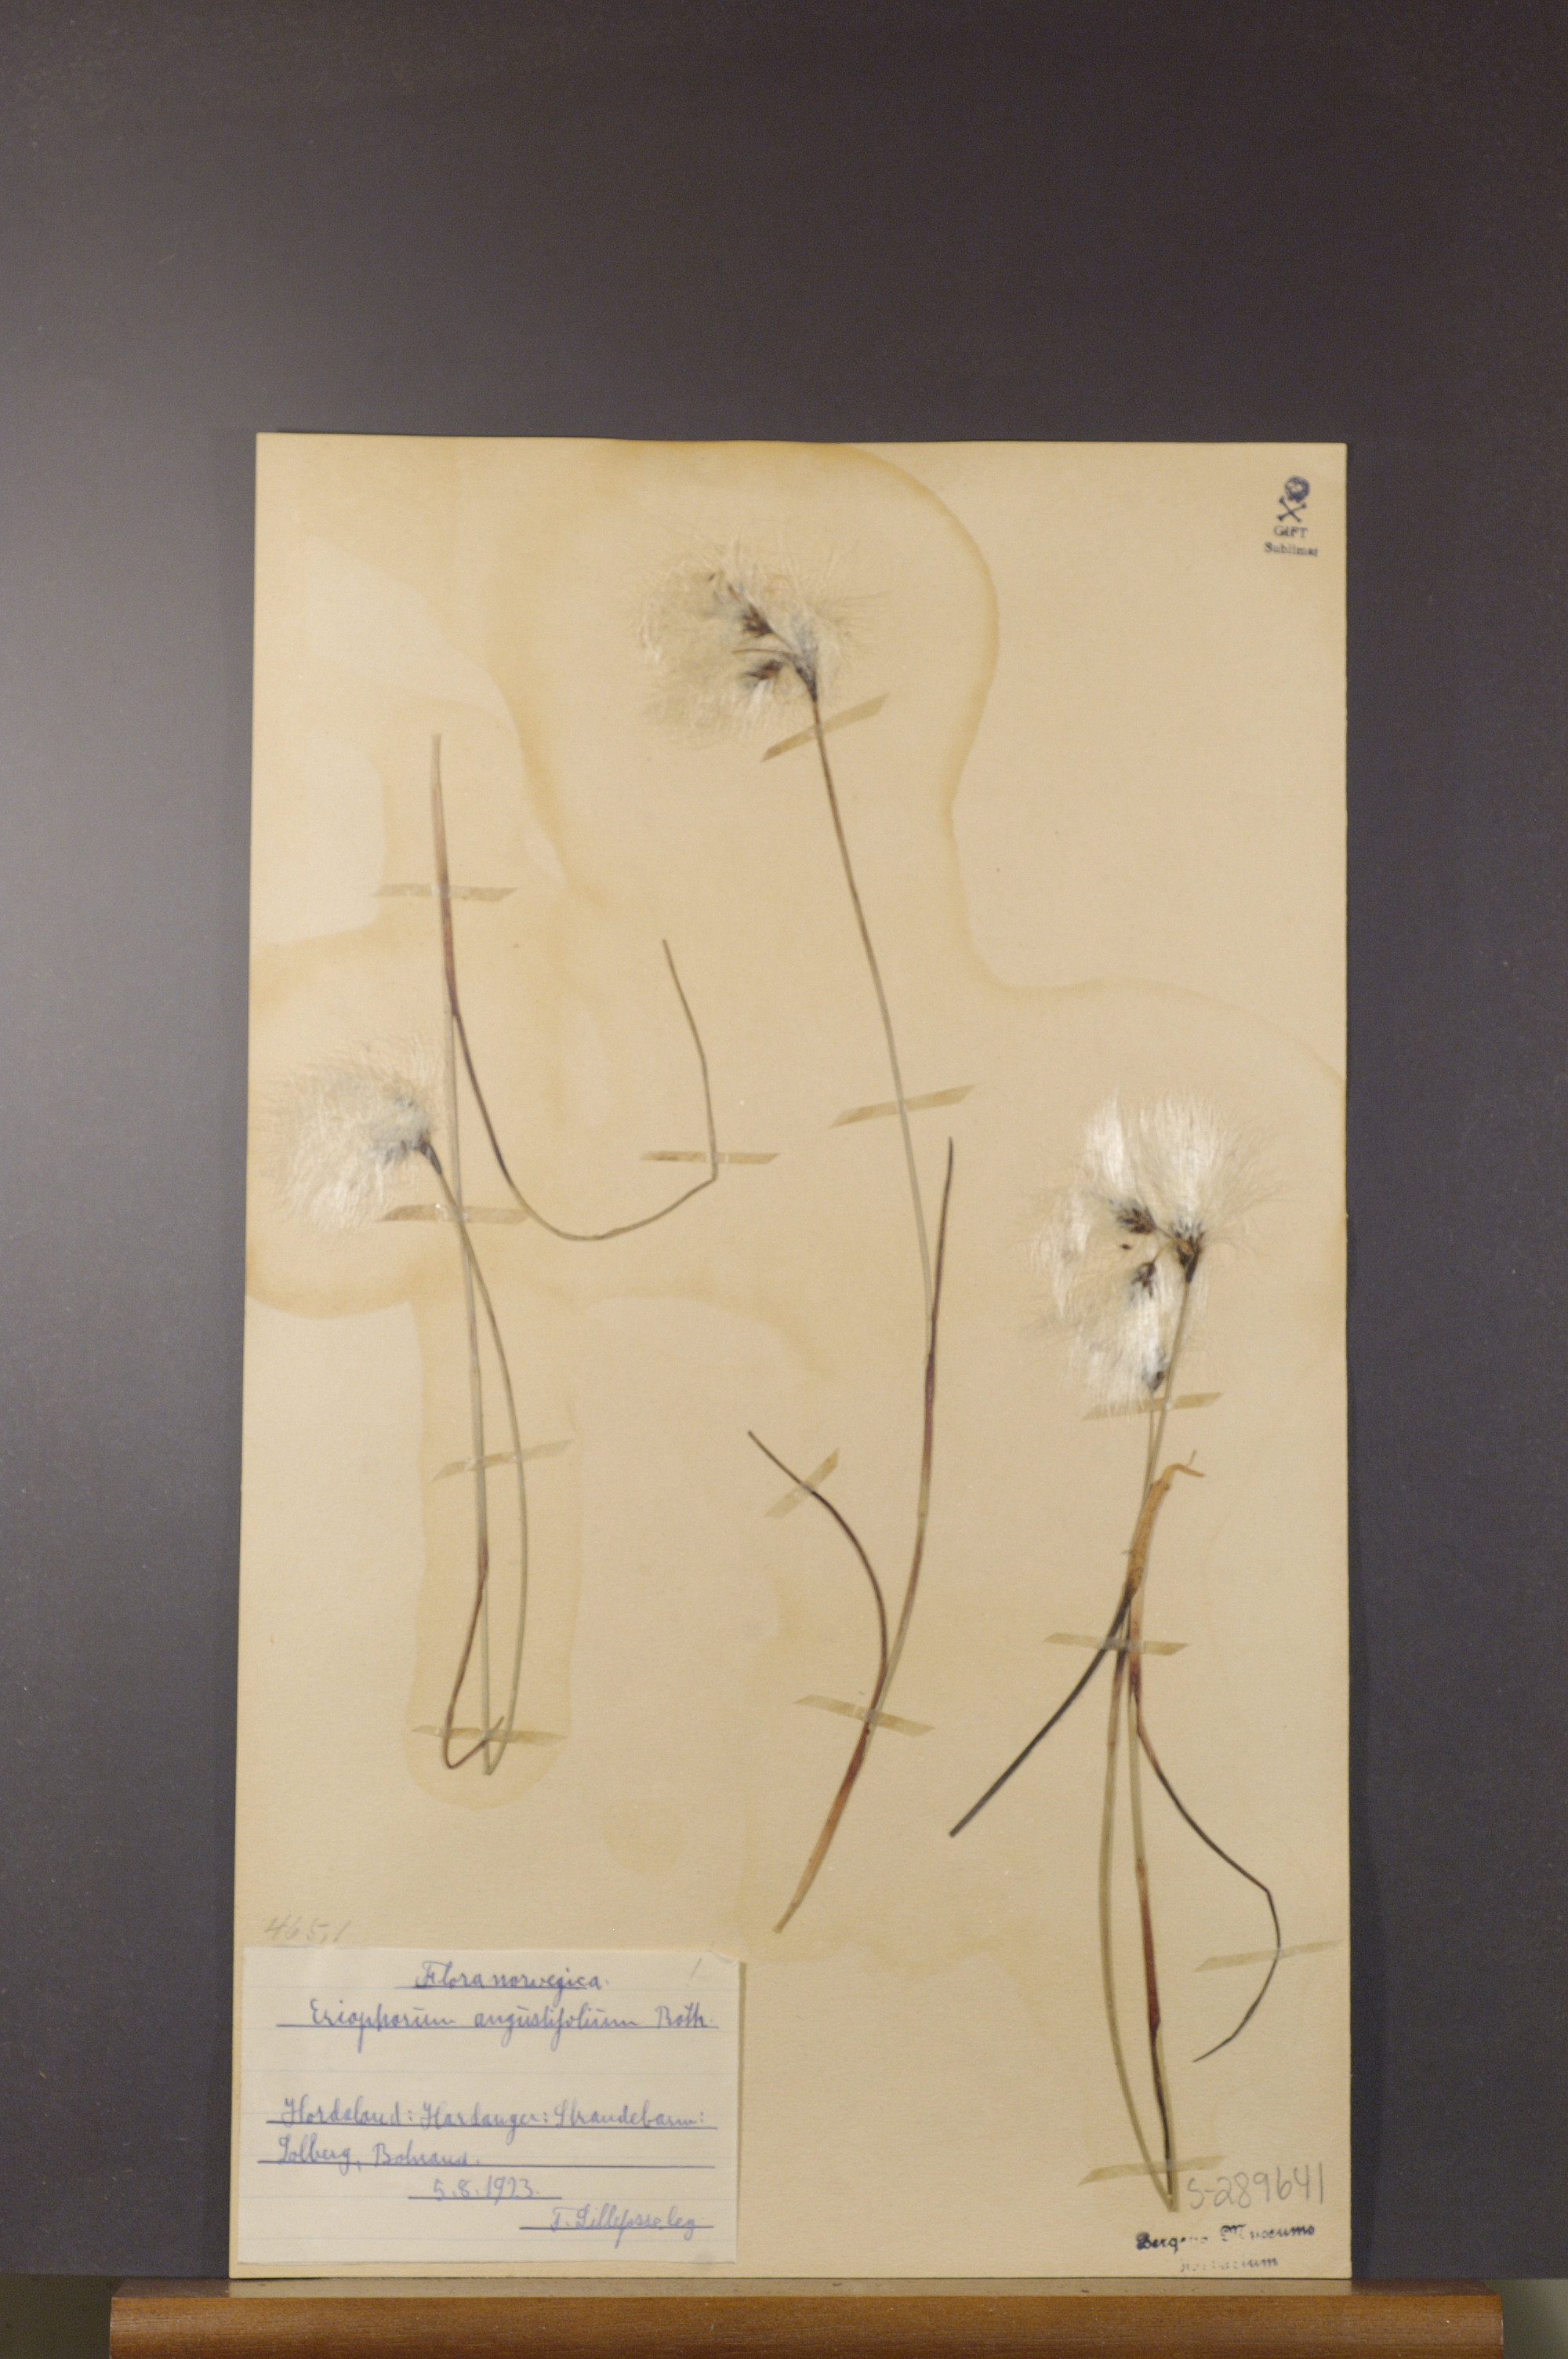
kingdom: Plantae
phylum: Tracheophyta
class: Liliopsida
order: Poales
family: Cyperaceae
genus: Eriophorum
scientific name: Eriophorum angustifolium
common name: Common cottongrass
